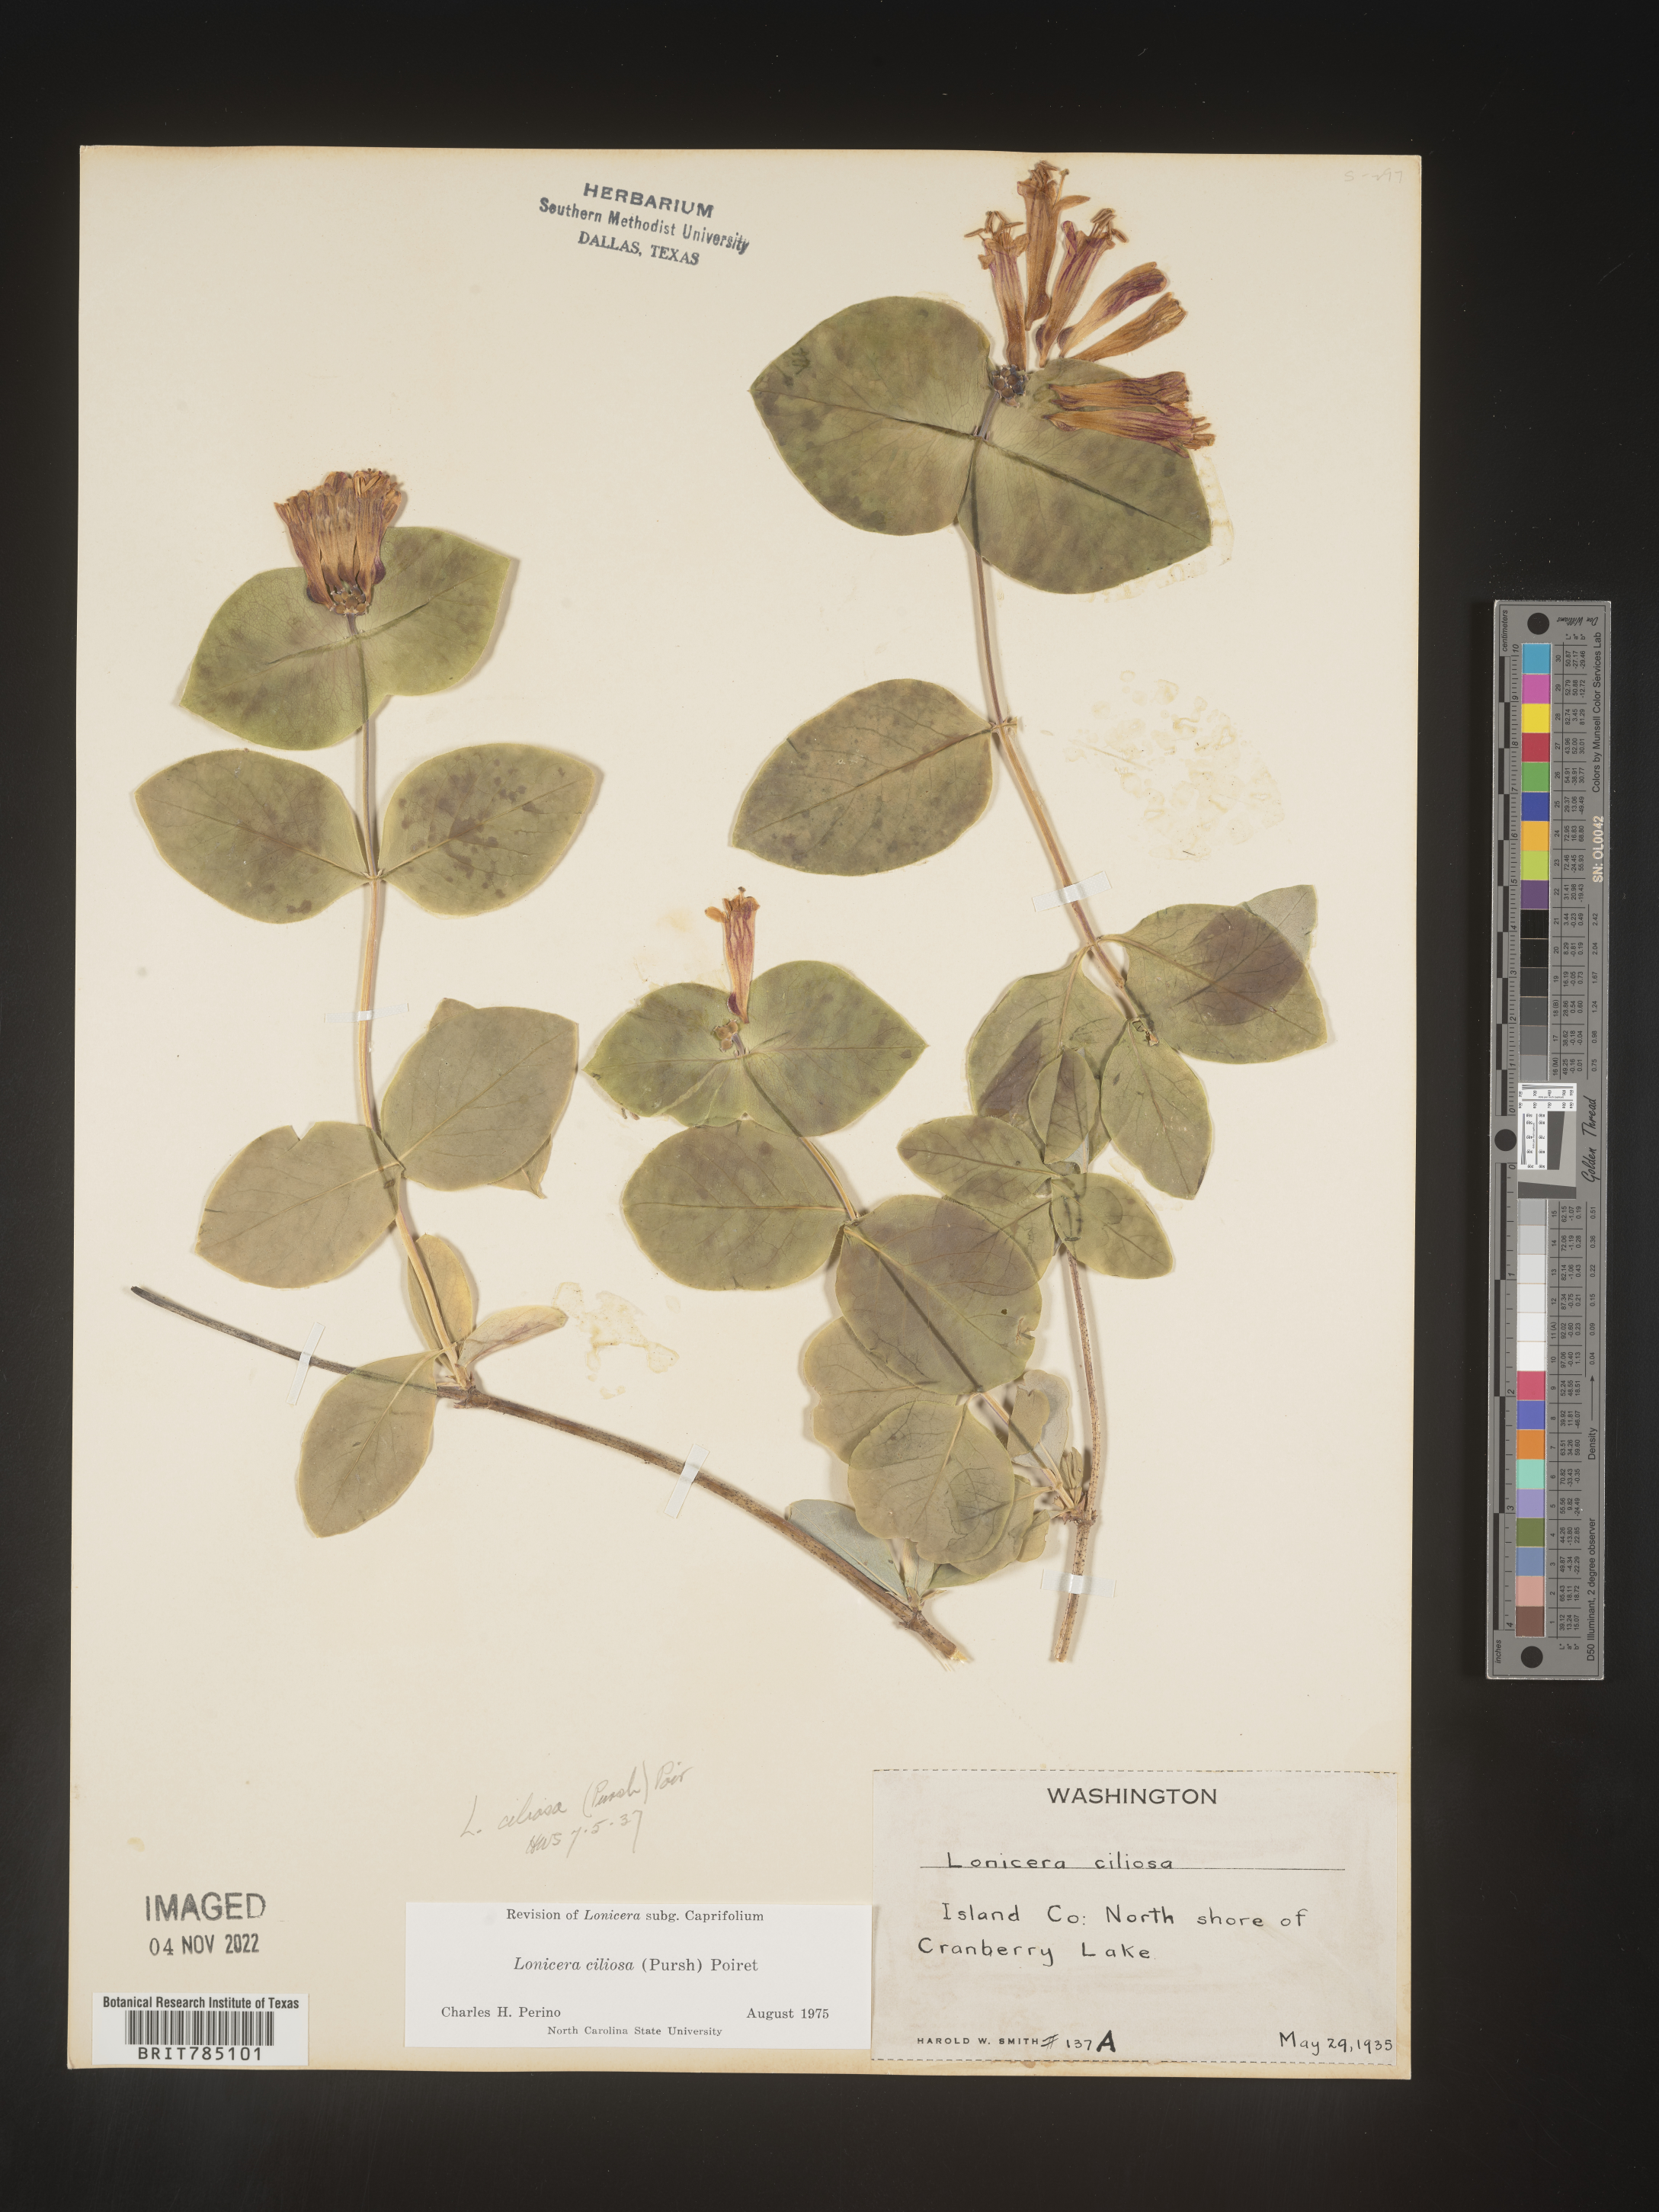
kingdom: Plantae
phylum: Tracheophyta
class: Magnoliopsida
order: Dipsacales
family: Caprifoliaceae
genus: Lonicera
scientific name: Lonicera
